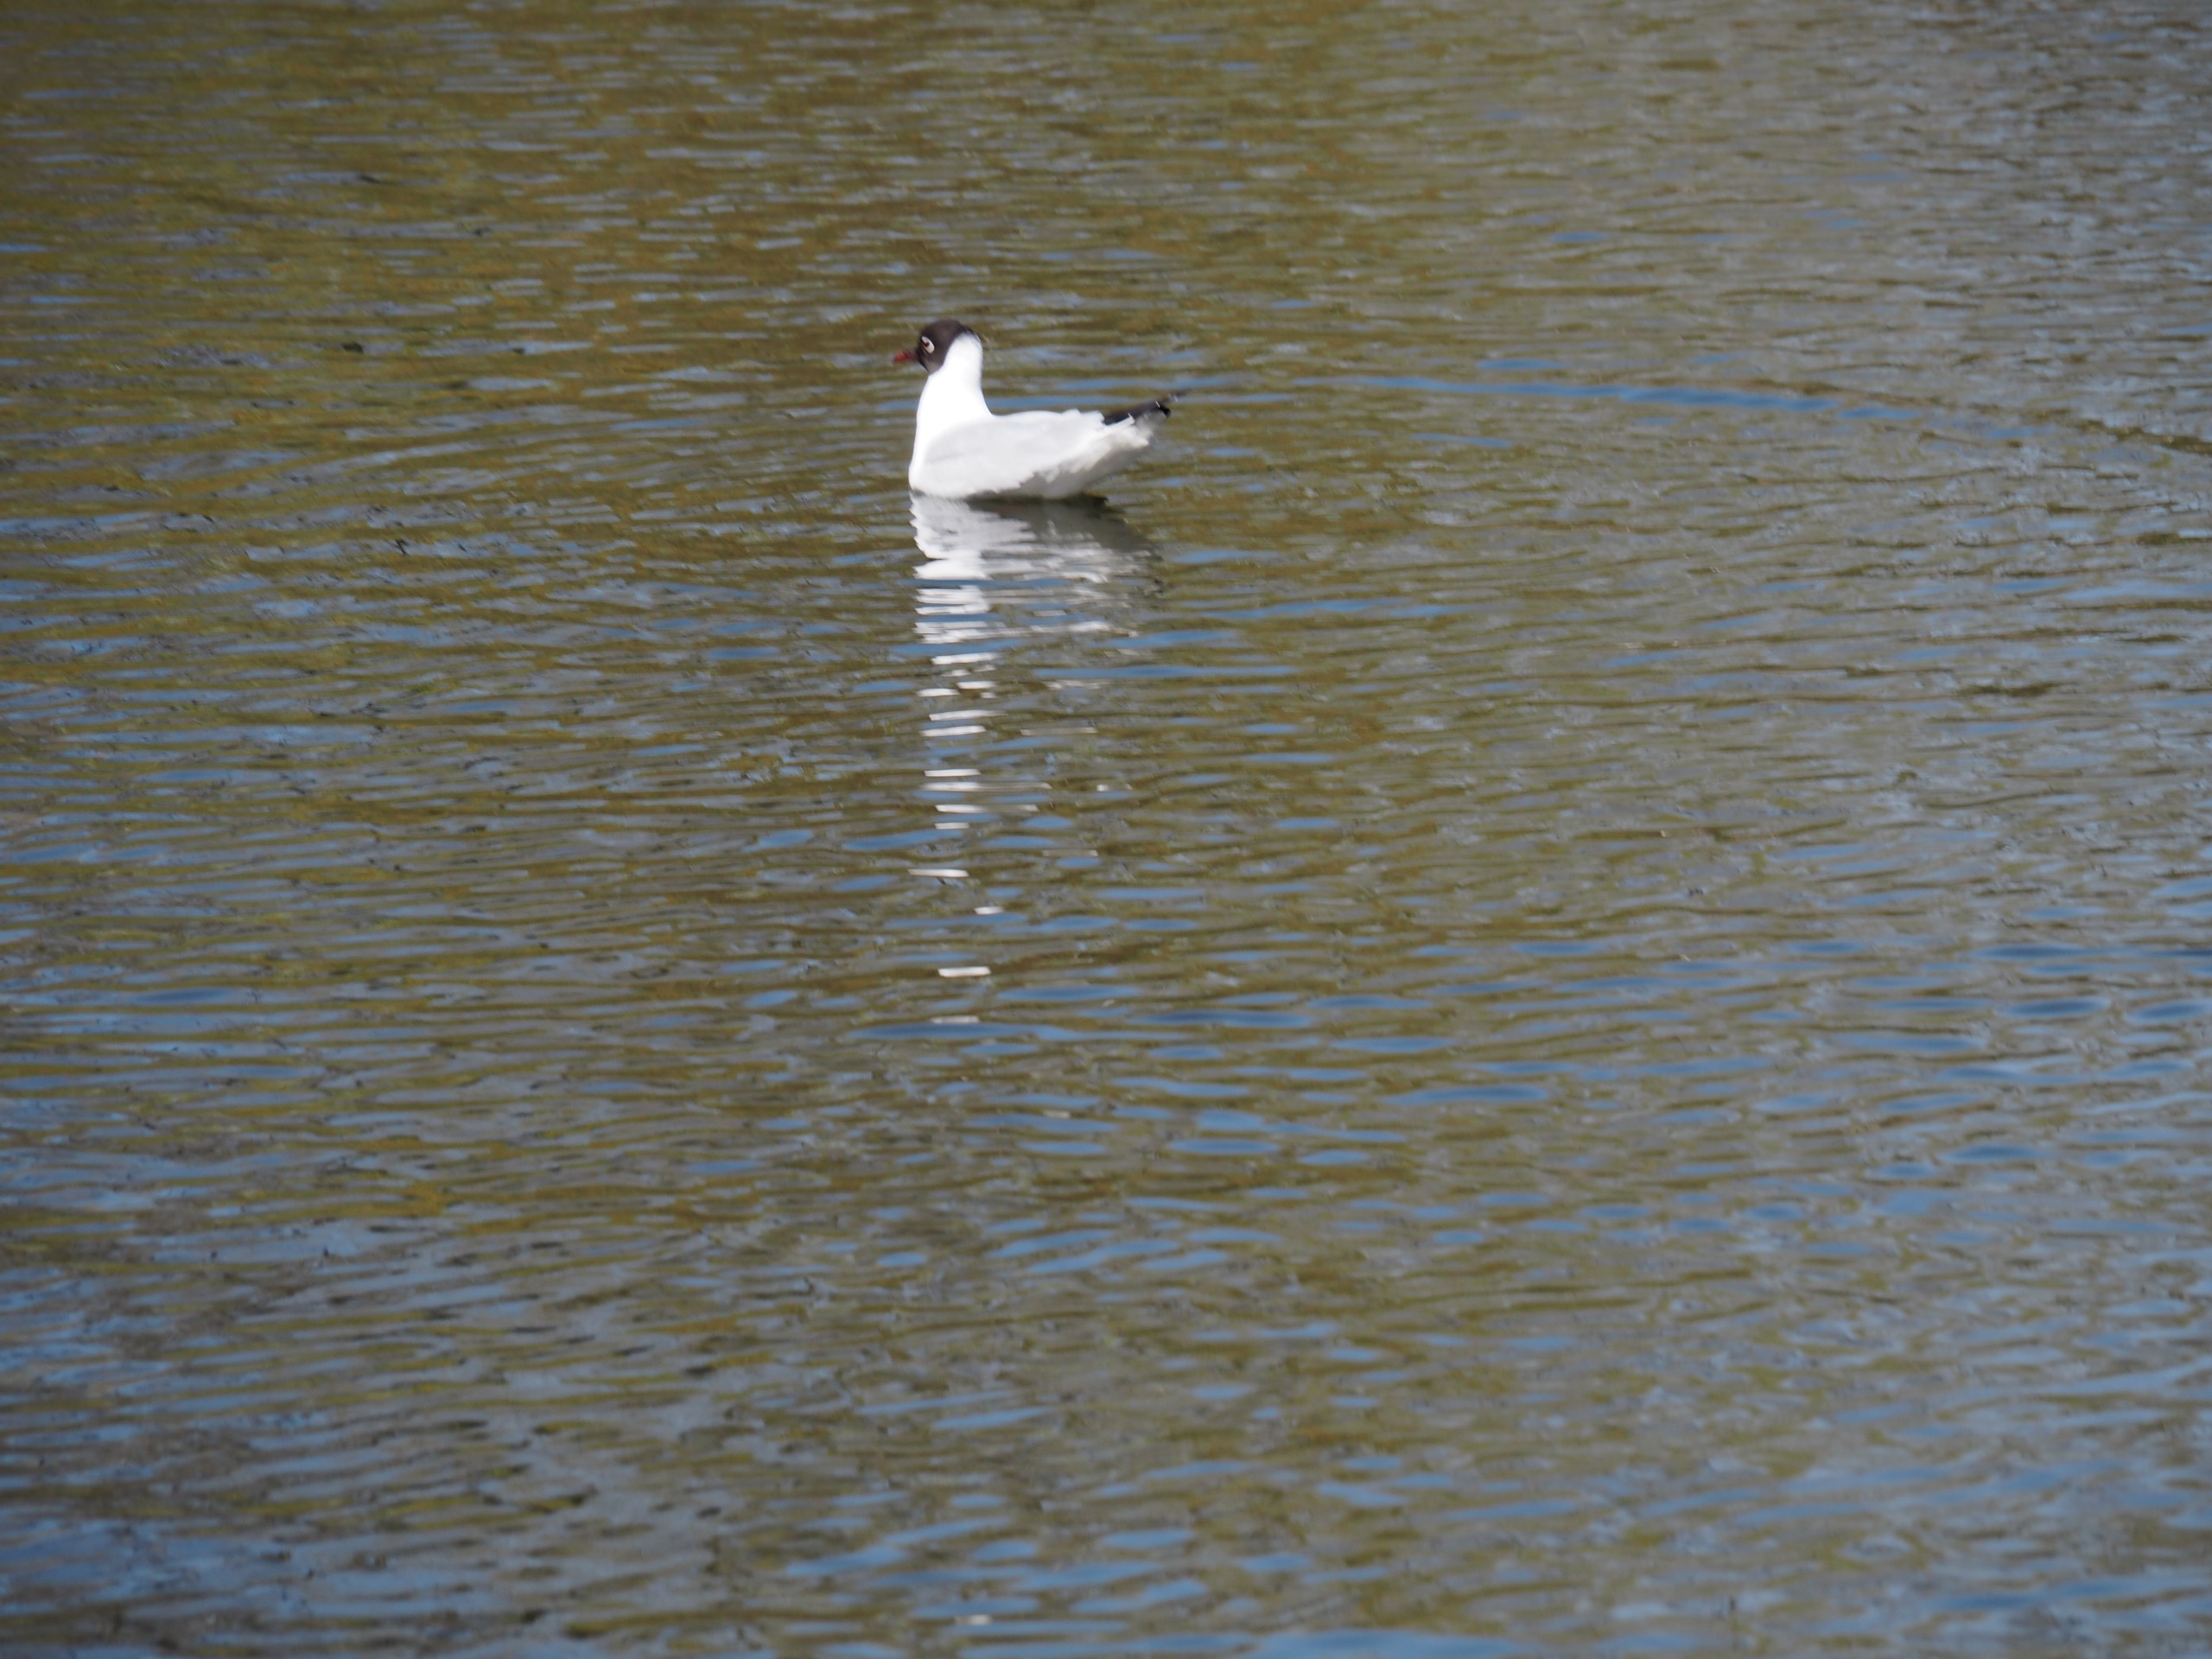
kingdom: Animalia
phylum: Chordata
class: Aves
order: Charadriiformes
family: Laridae
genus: Chroicocephalus
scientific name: Chroicocephalus ridibundus
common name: Hættemåge
